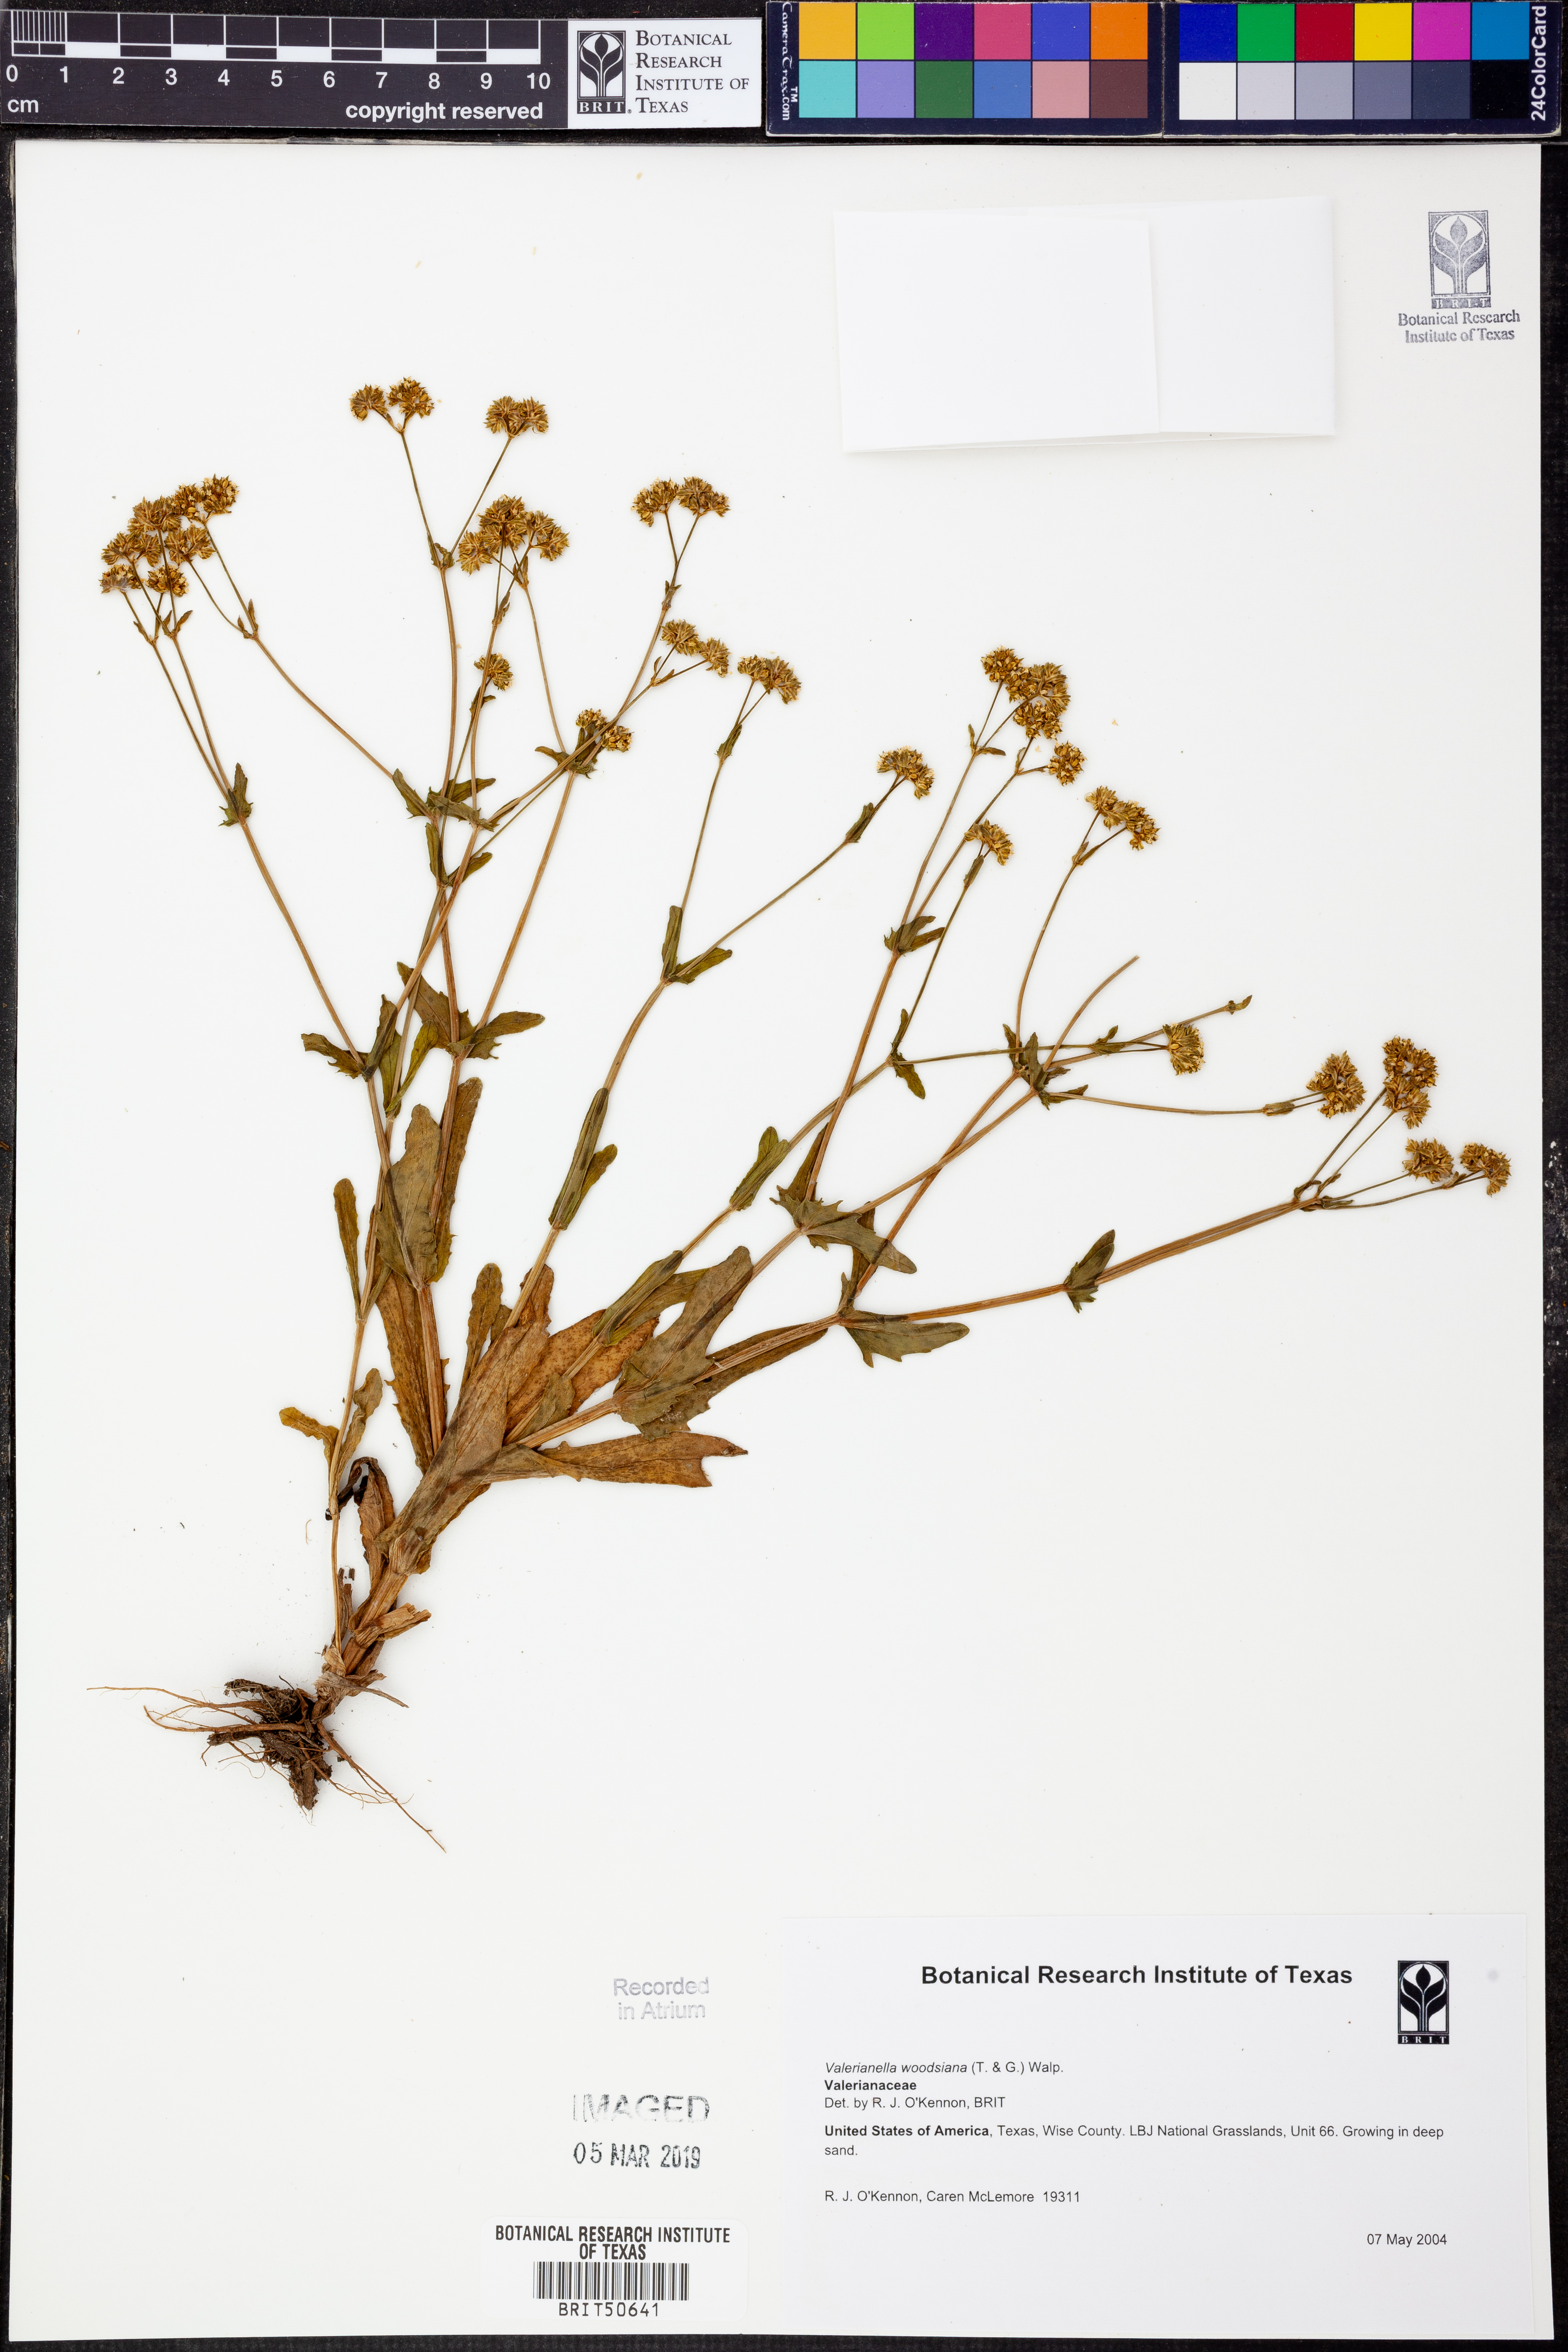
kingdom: Plantae
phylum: Tracheophyta
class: Magnoliopsida
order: Dipsacales
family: Caprifoliaceae
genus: Valerianella
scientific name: Valerianella radiata
